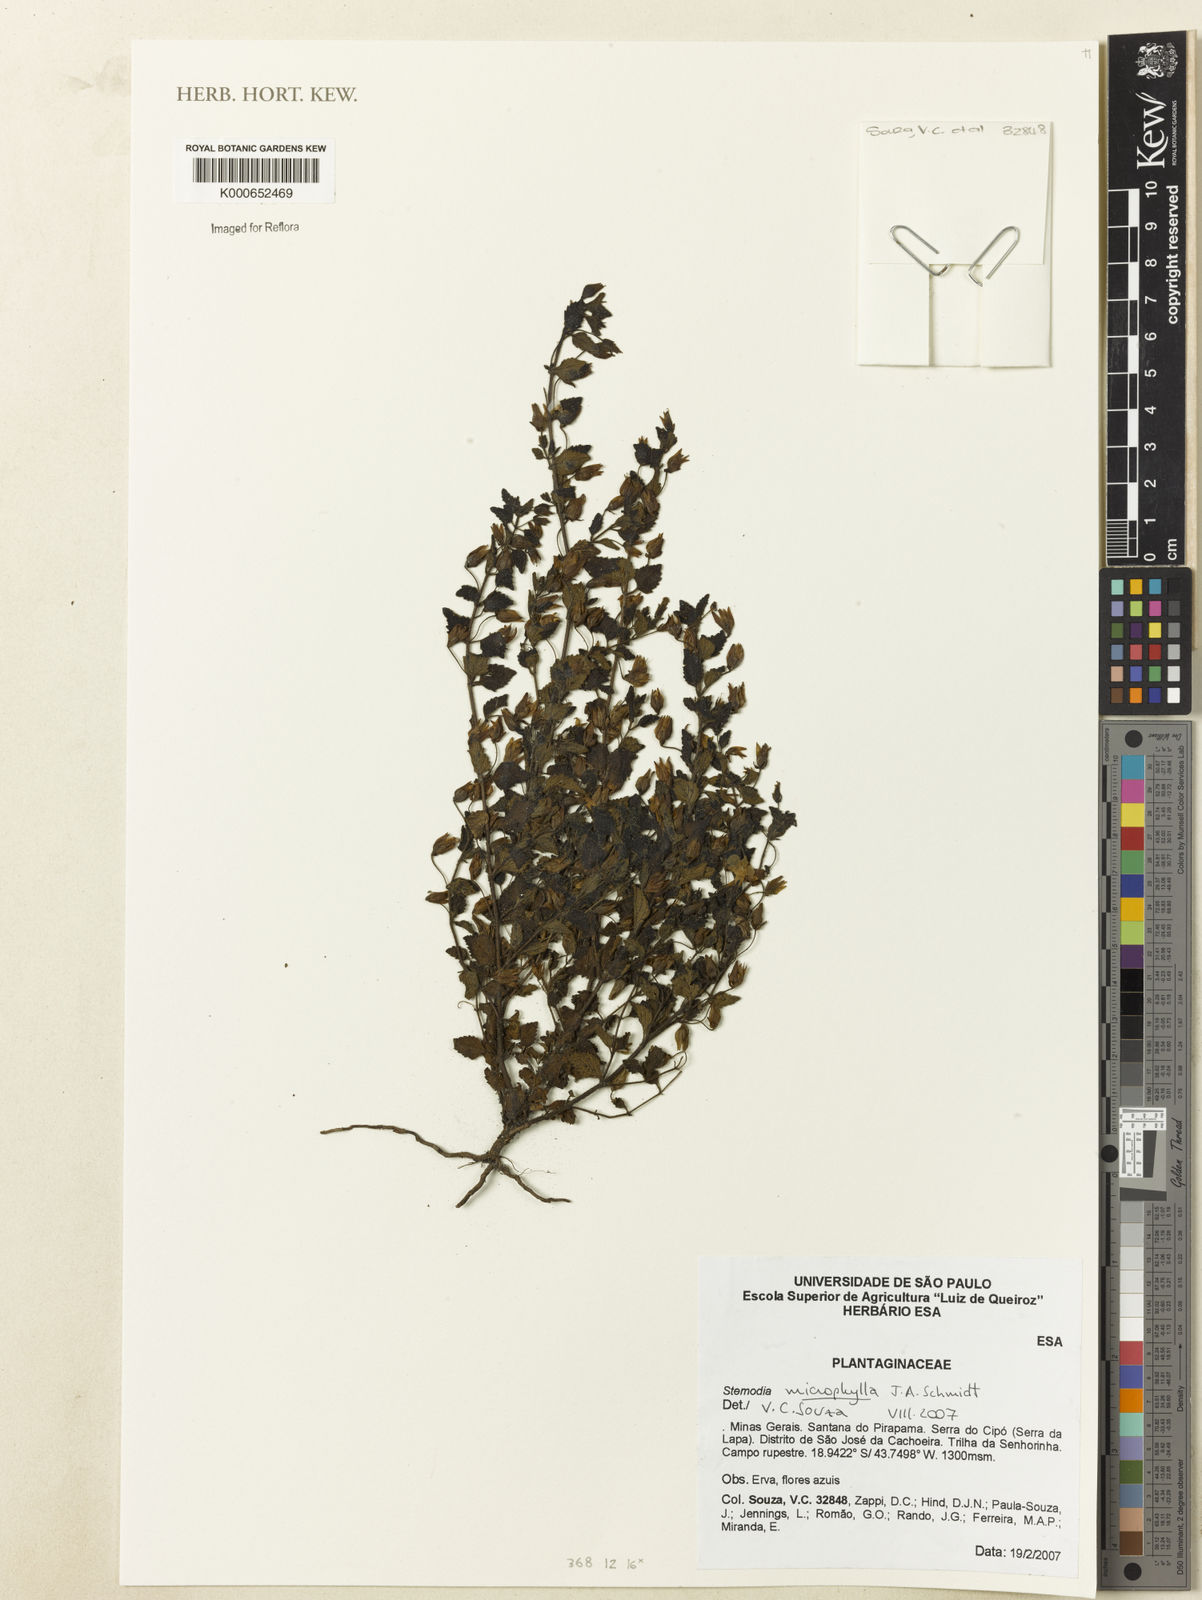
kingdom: Plantae
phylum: Tracheophyta
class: Magnoliopsida
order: Lamiales
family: Plantaginaceae
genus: Umbraria
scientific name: Umbraria microphylla
